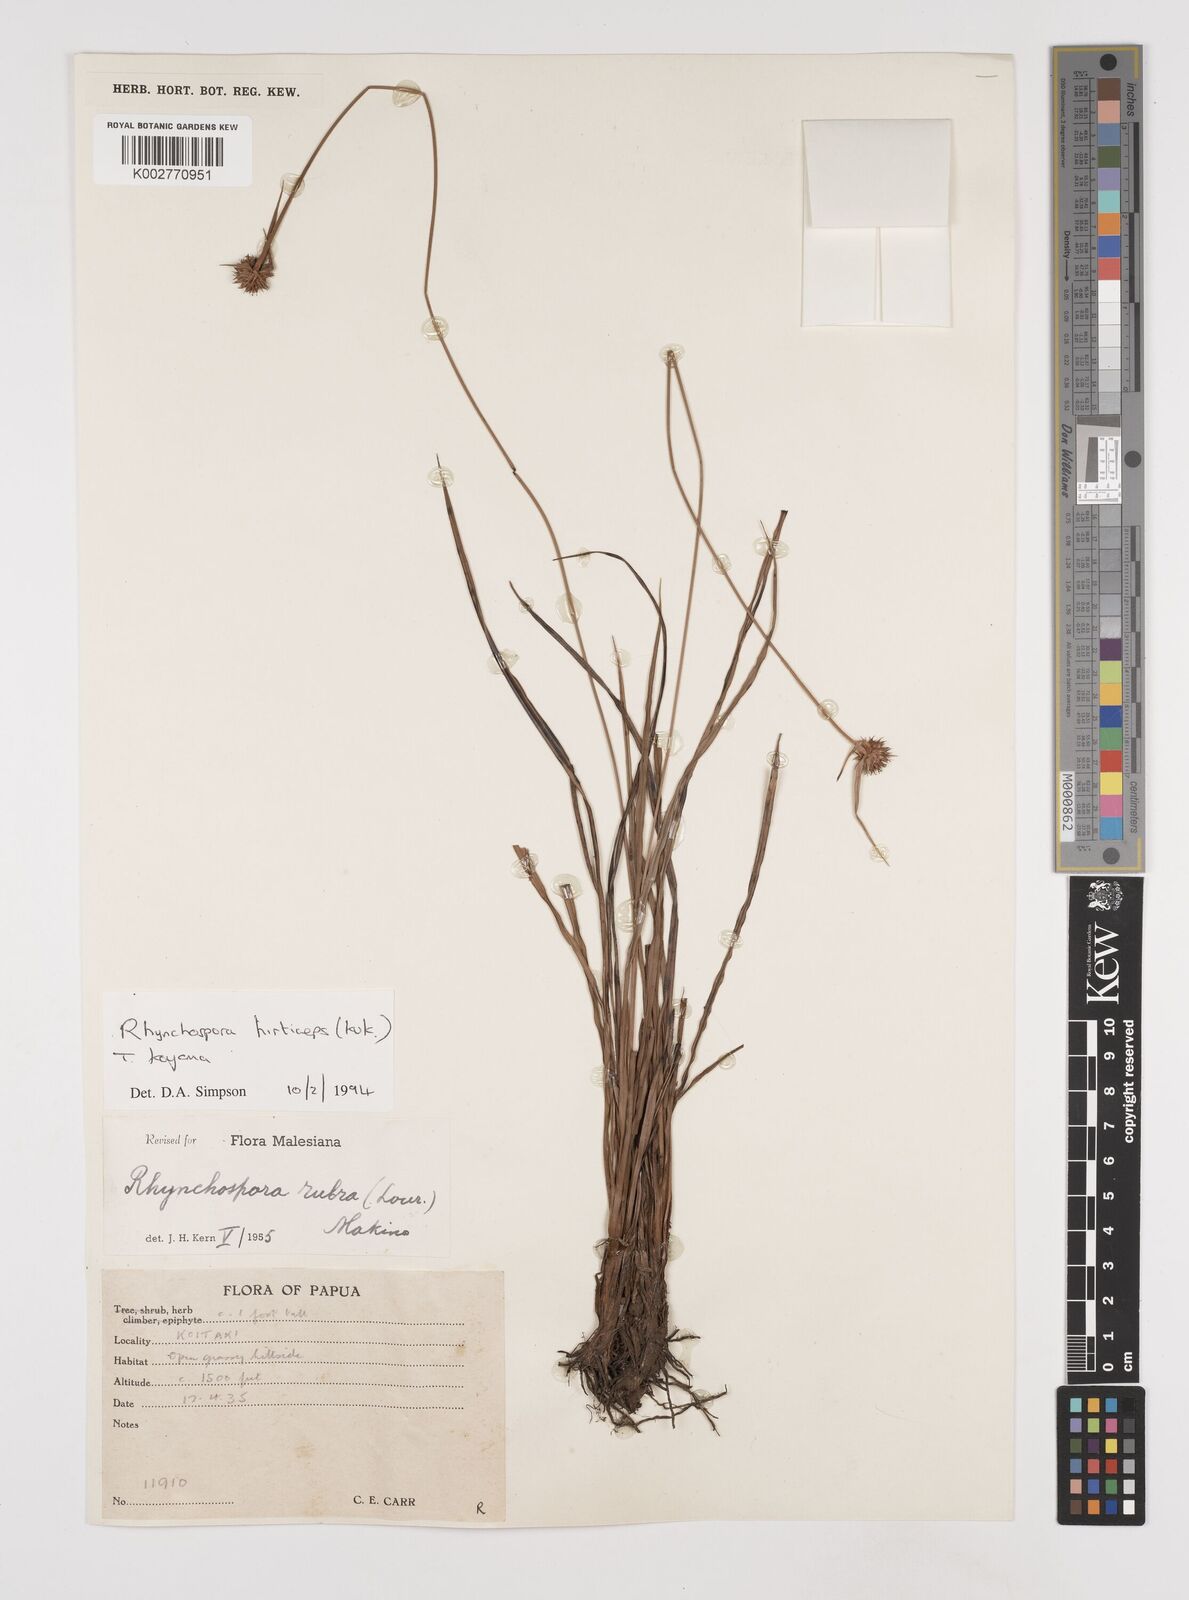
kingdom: Plantae
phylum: Tracheophyta
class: Liliopsida
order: Poales
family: Cyperaceae
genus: Rhynchospora
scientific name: Rhynchospora hirticeps
